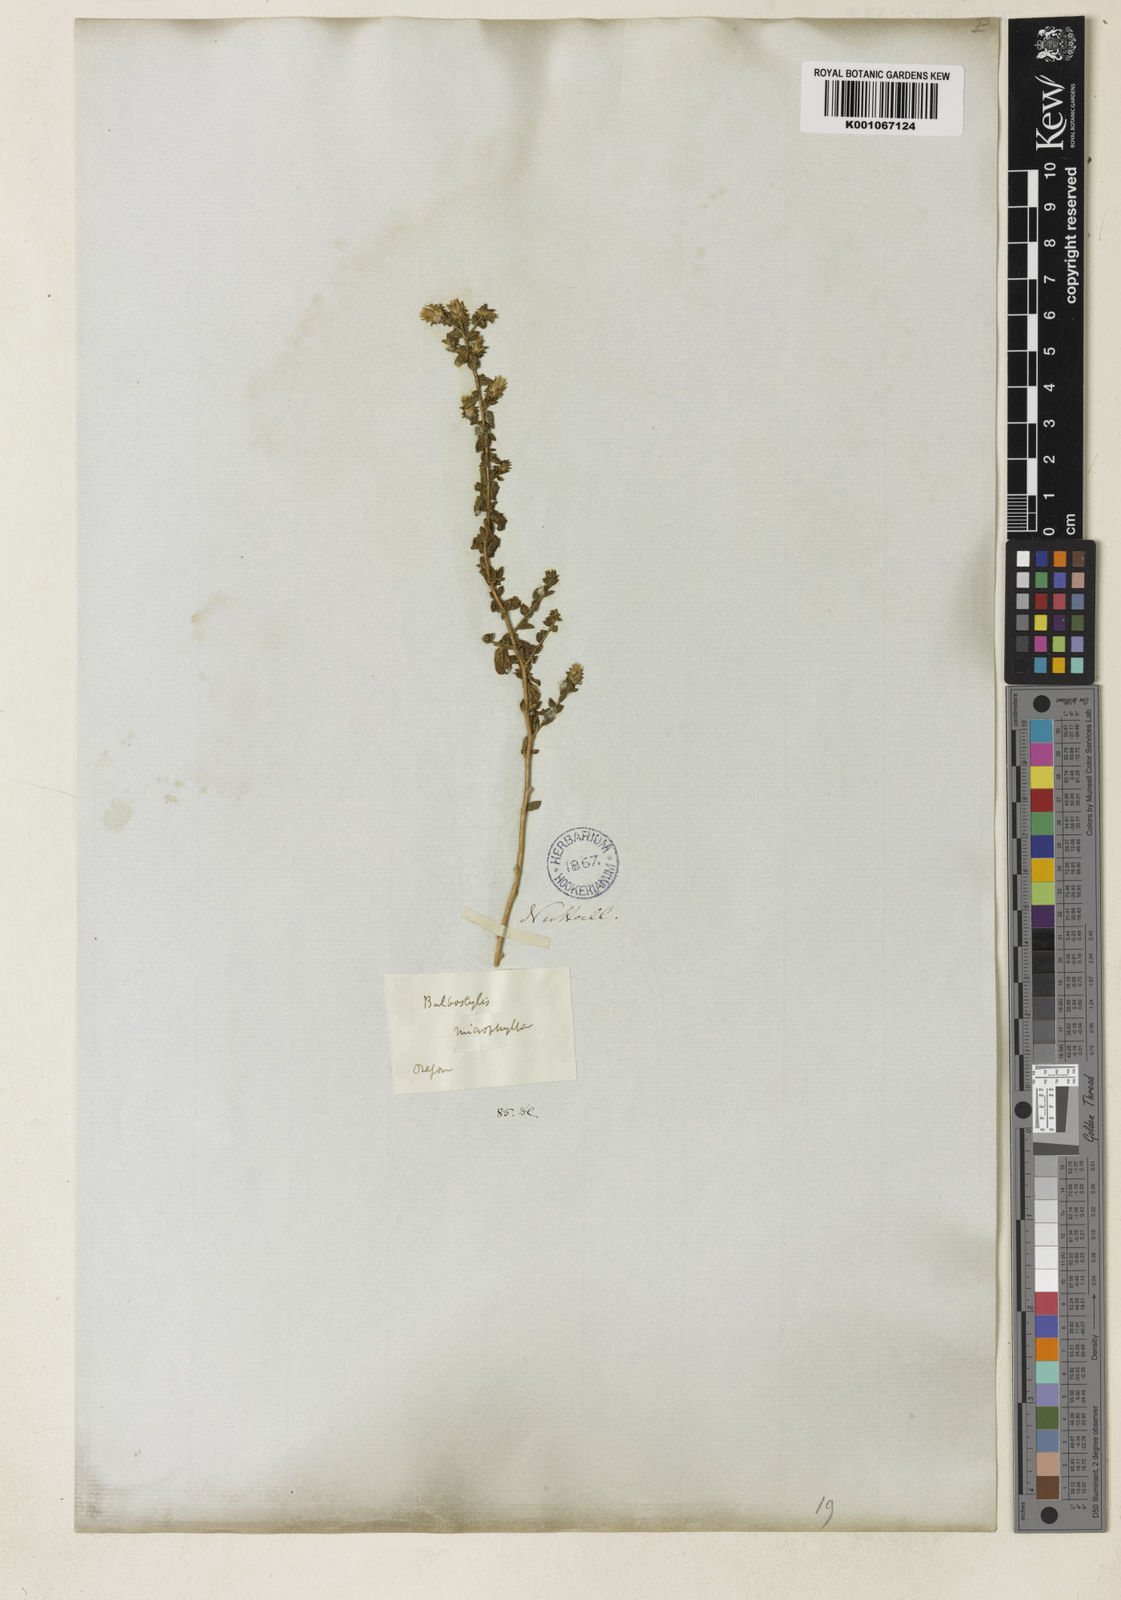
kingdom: Plantae
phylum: Tracheophyta
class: Magnoliopsida
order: Asterales
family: Asteraceae
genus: Brickellia
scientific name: Brickellia microphylla
